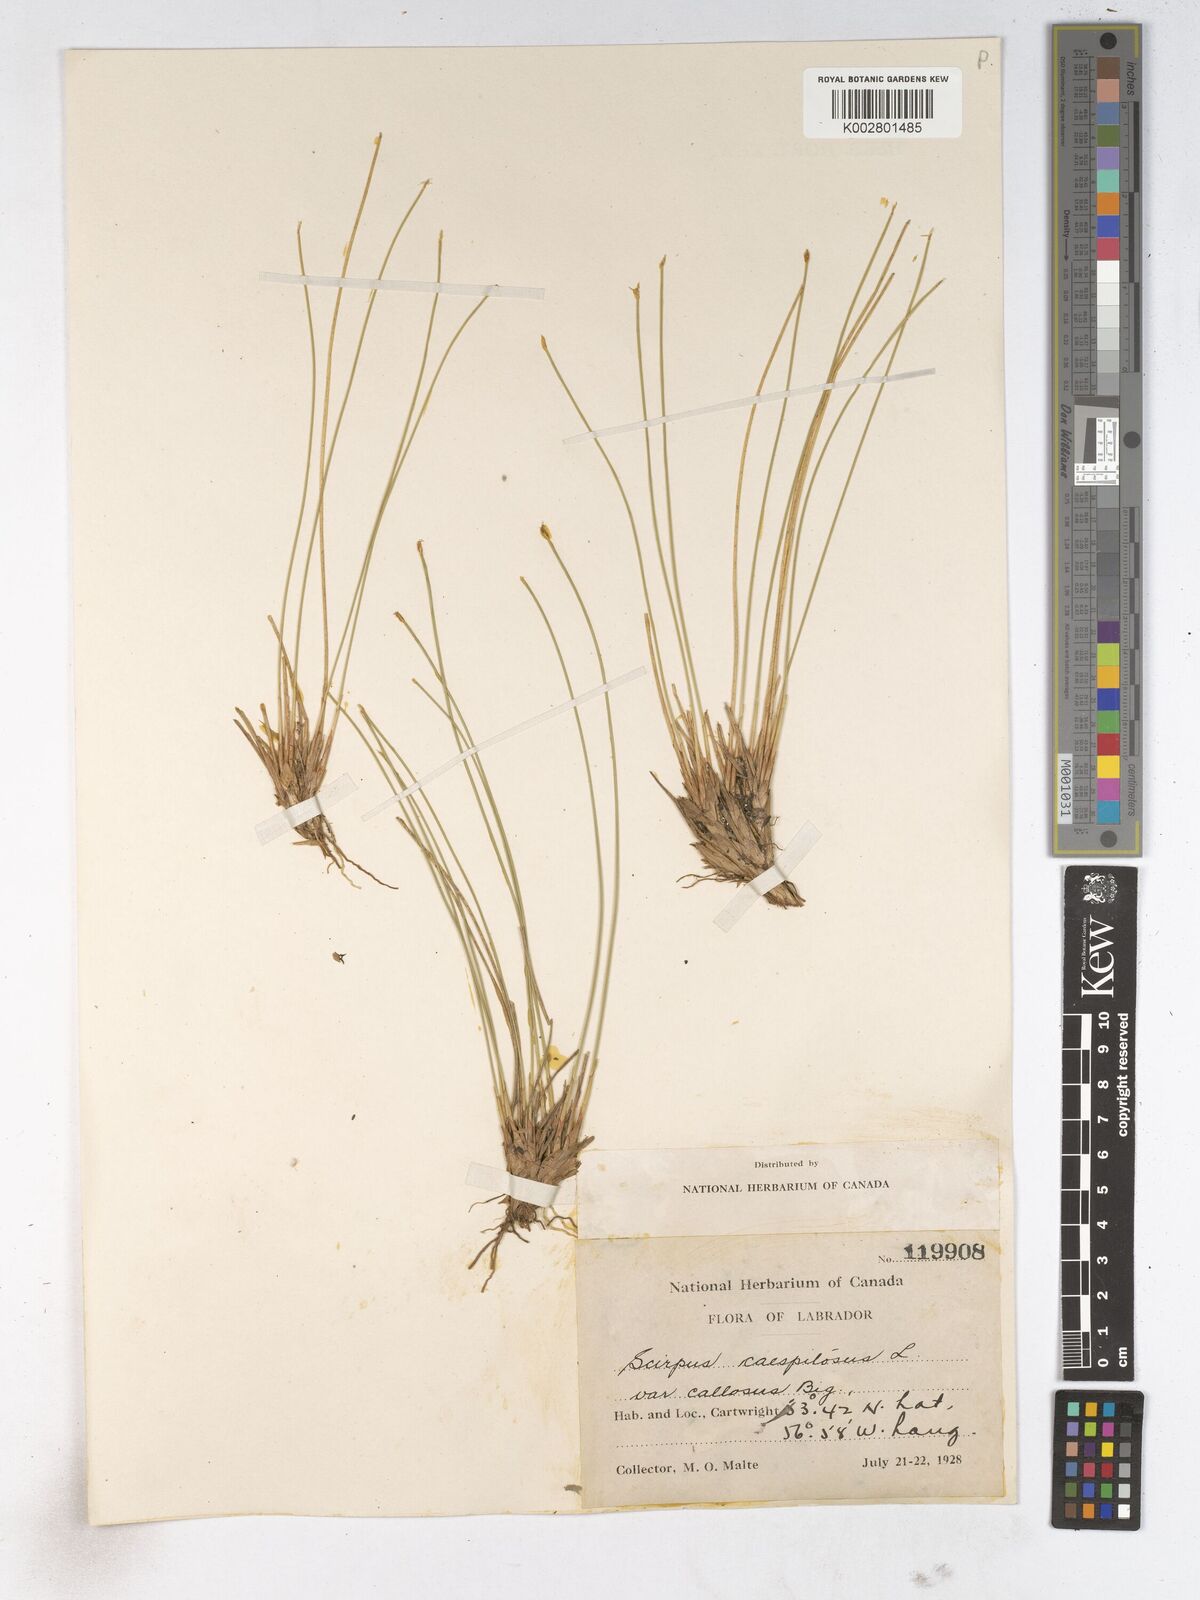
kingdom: Plantae
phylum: Tracheophyta
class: Liliopsida
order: Poales
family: Cyperaceae
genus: Trichophorum
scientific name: Trichophorum cespitosum
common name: Cespitose bulrush
